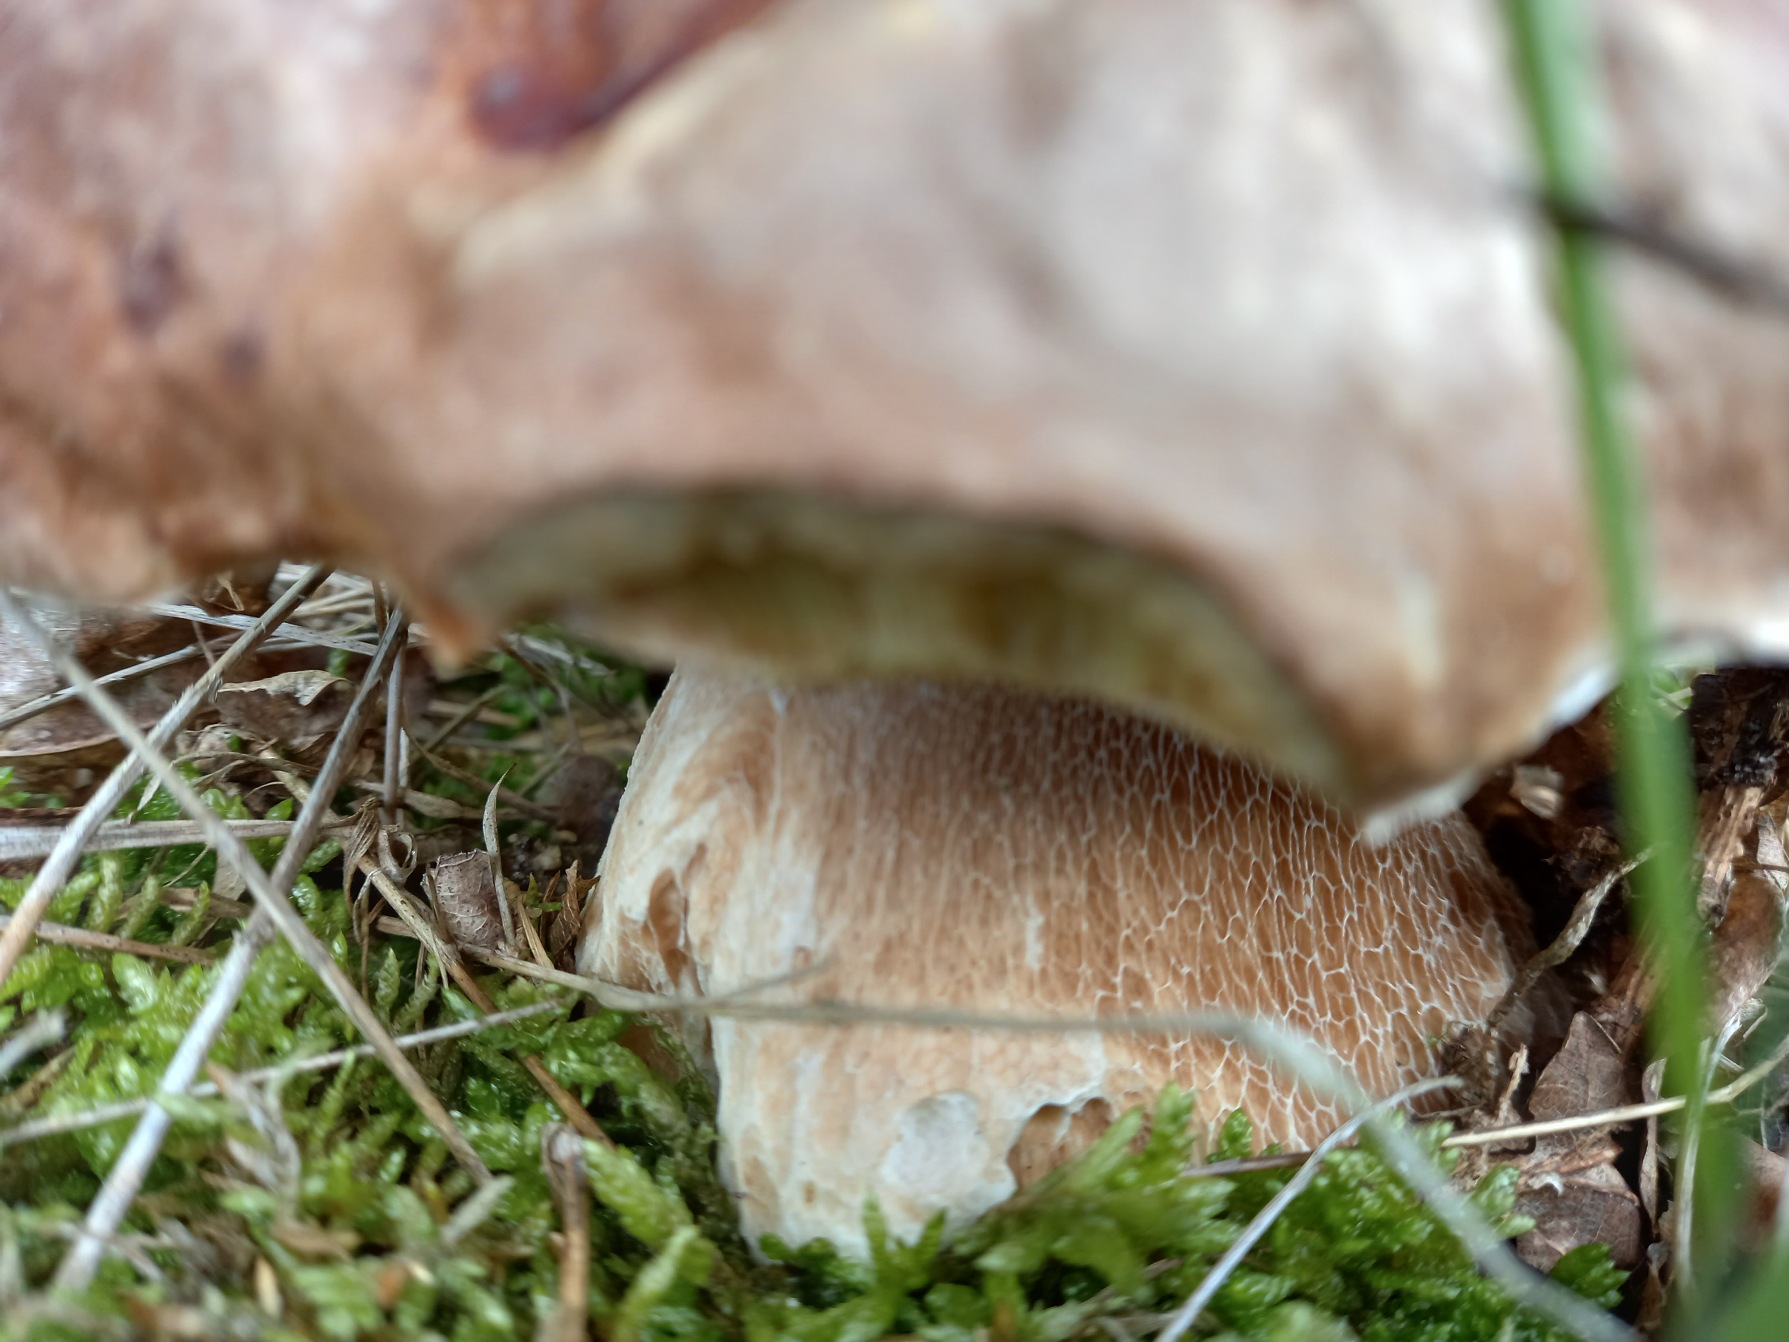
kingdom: Fungi
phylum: Basidiomycota
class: Agaricomycetes
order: Boletales
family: Boletaceae
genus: Boletus
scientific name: Boletus edulis
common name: Spiselig rørhat/karl johan
